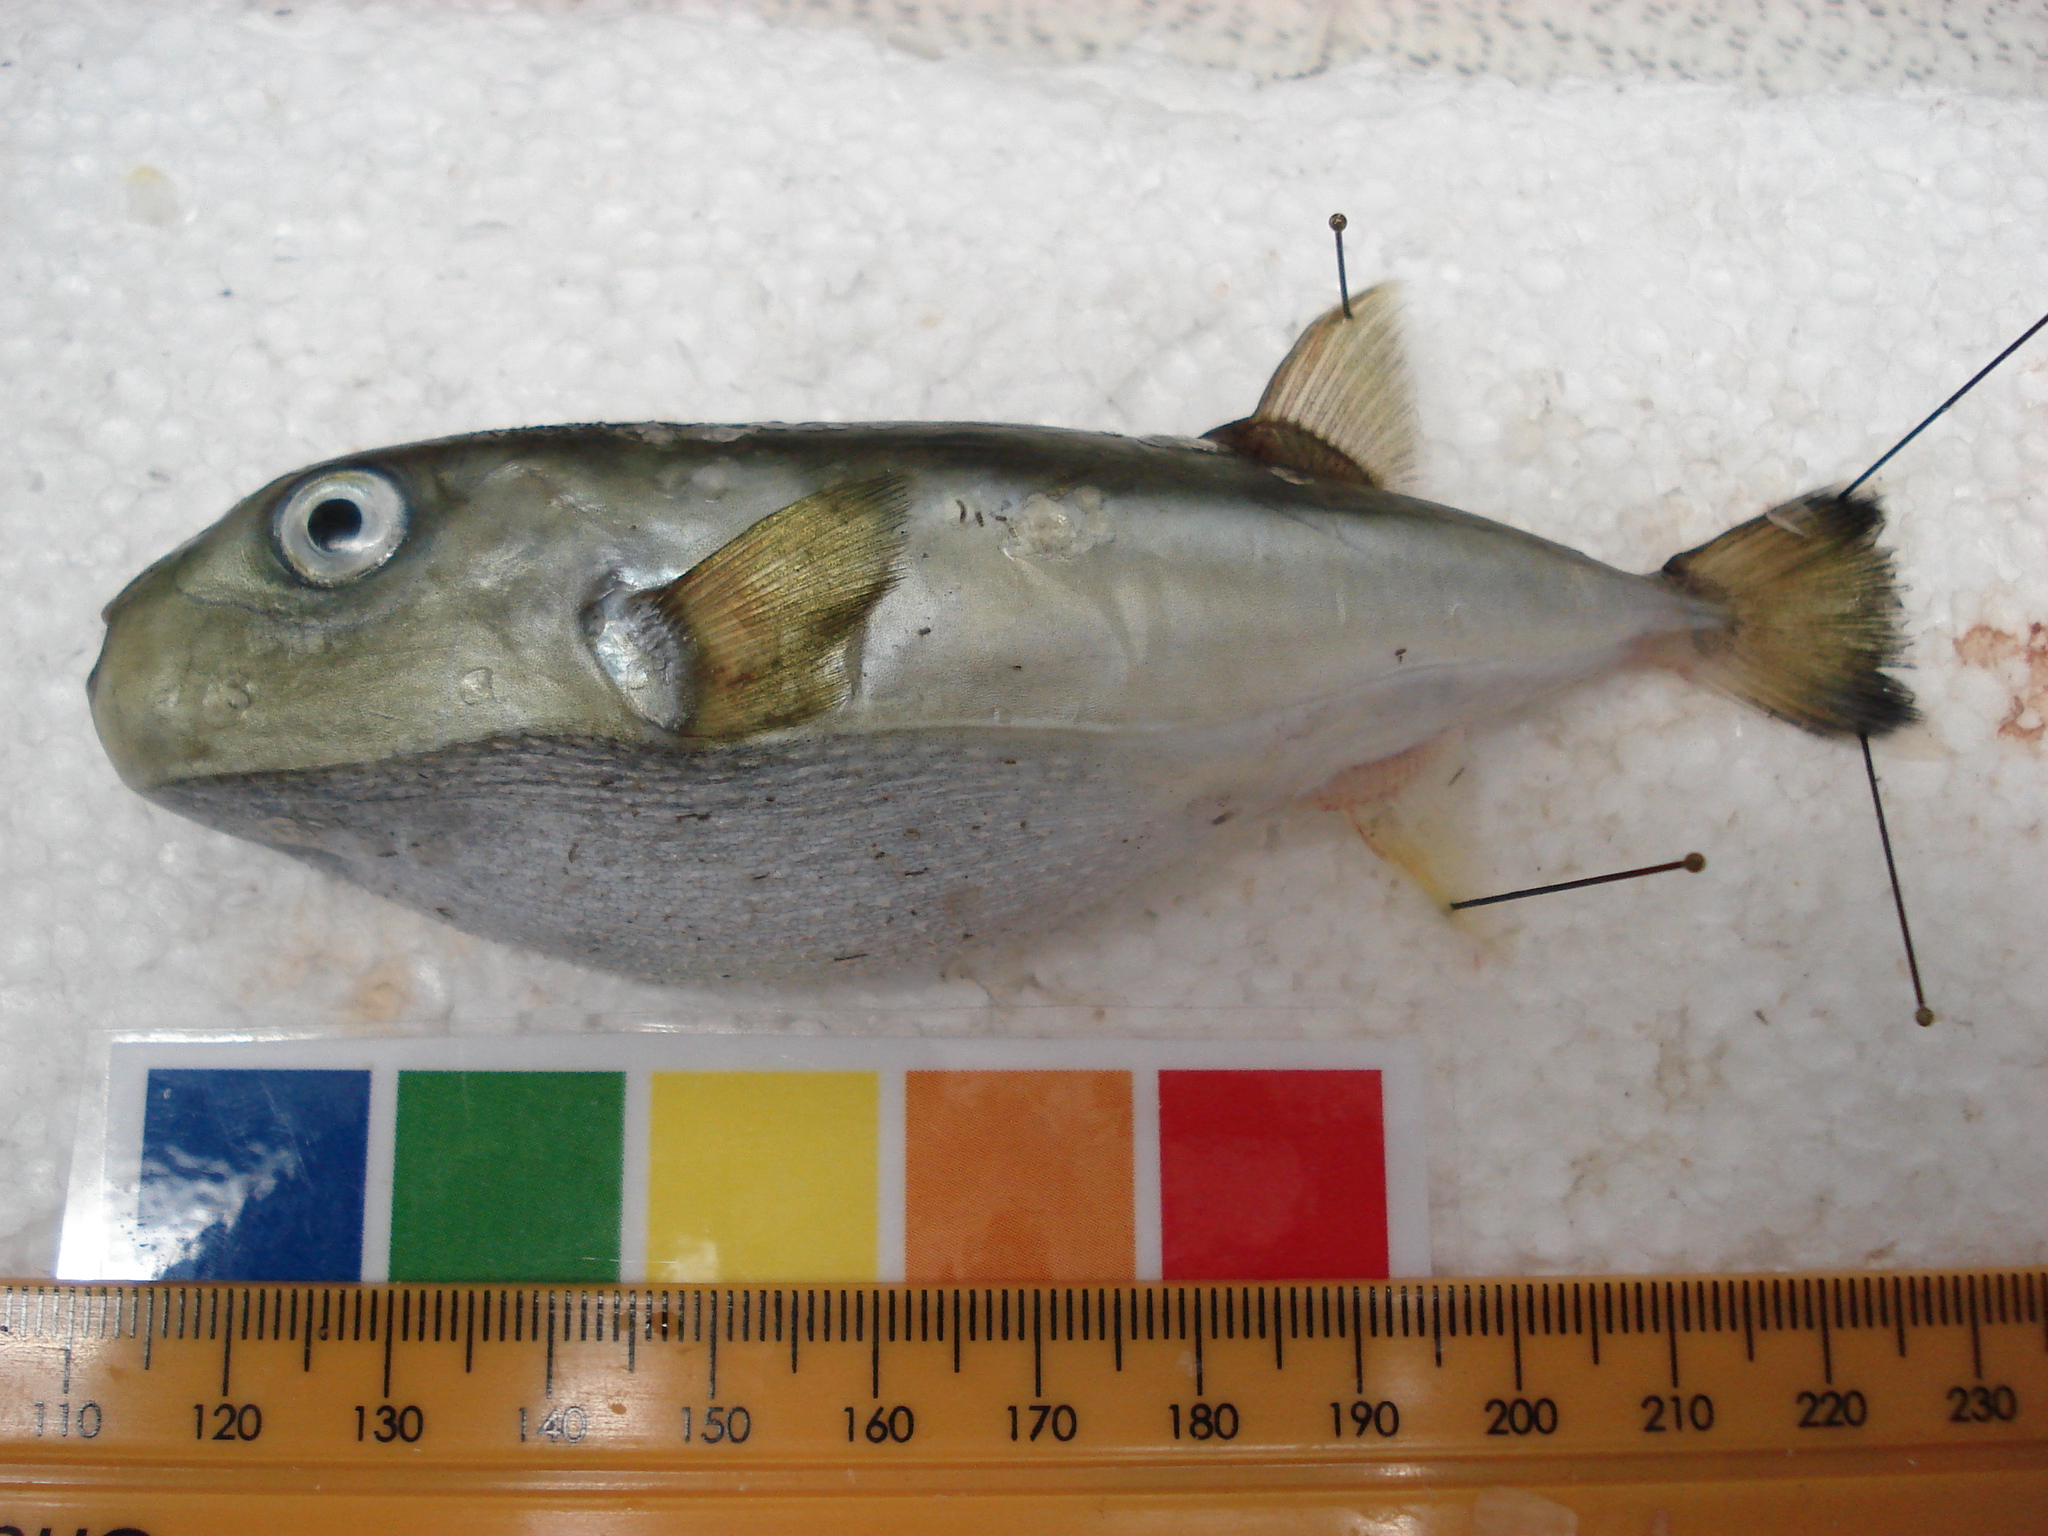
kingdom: Animalia
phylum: Chordata
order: Tetraodontiformes
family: Tetraodontidae
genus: Lagocephalus
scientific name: Lagocephalus guentheri
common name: Diamondback puffer
